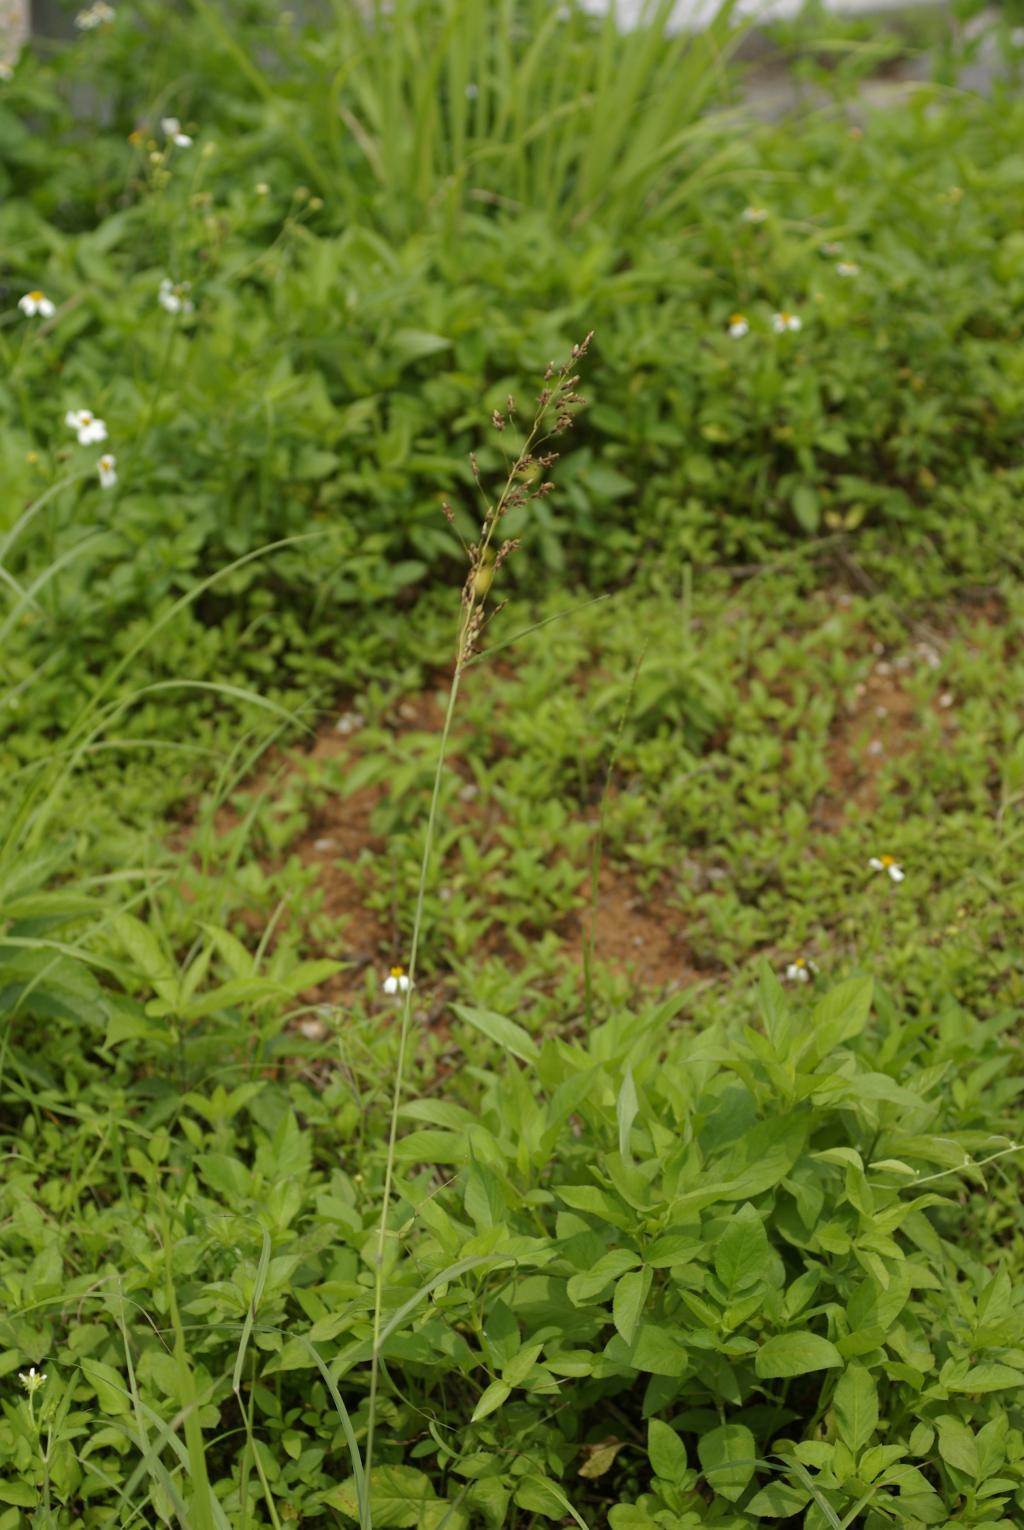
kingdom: Plantae
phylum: Tracheophyta
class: Liliopsida
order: Poales
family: Poaceae
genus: Sorghum
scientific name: Sorghum nitidum
